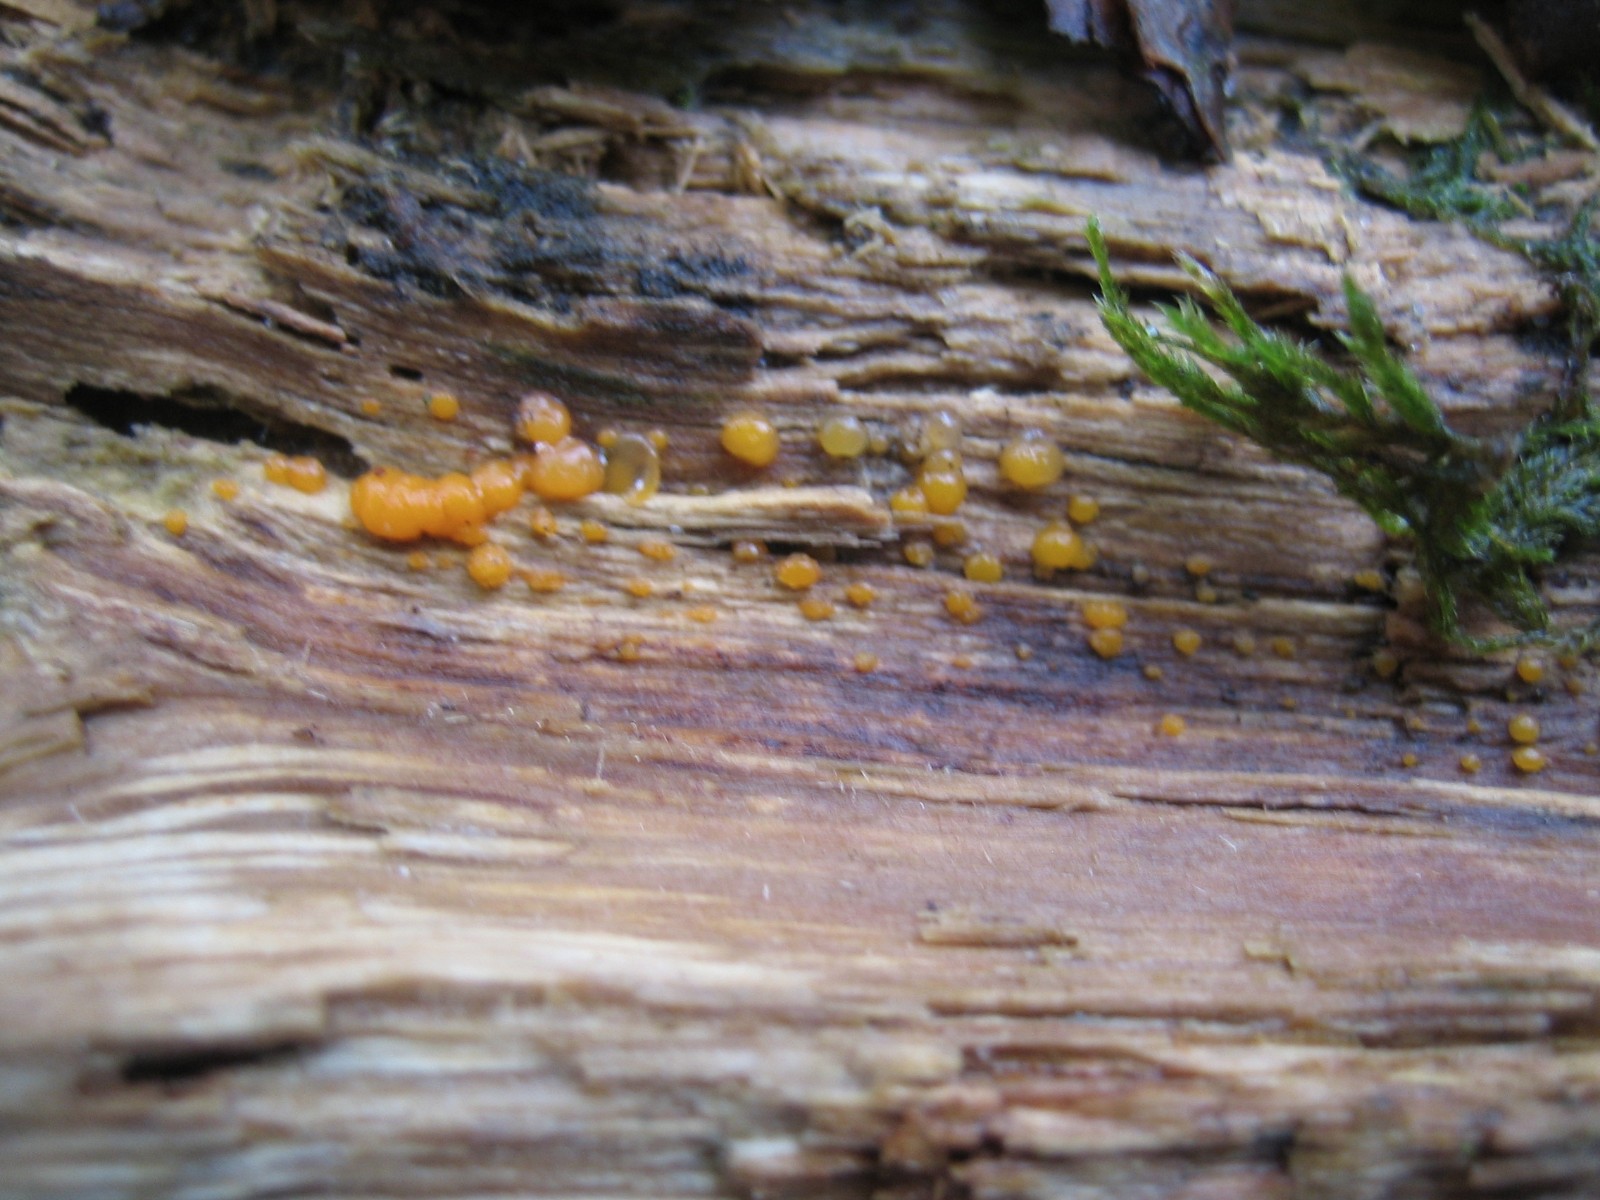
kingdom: Fungi
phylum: Basidiomycota
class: Dacrymycetes
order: Dacrymycetales
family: Dacrymycetaceae
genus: Dacrymyces
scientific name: Dacrymyces stillatus
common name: almindelig tåresvamp
